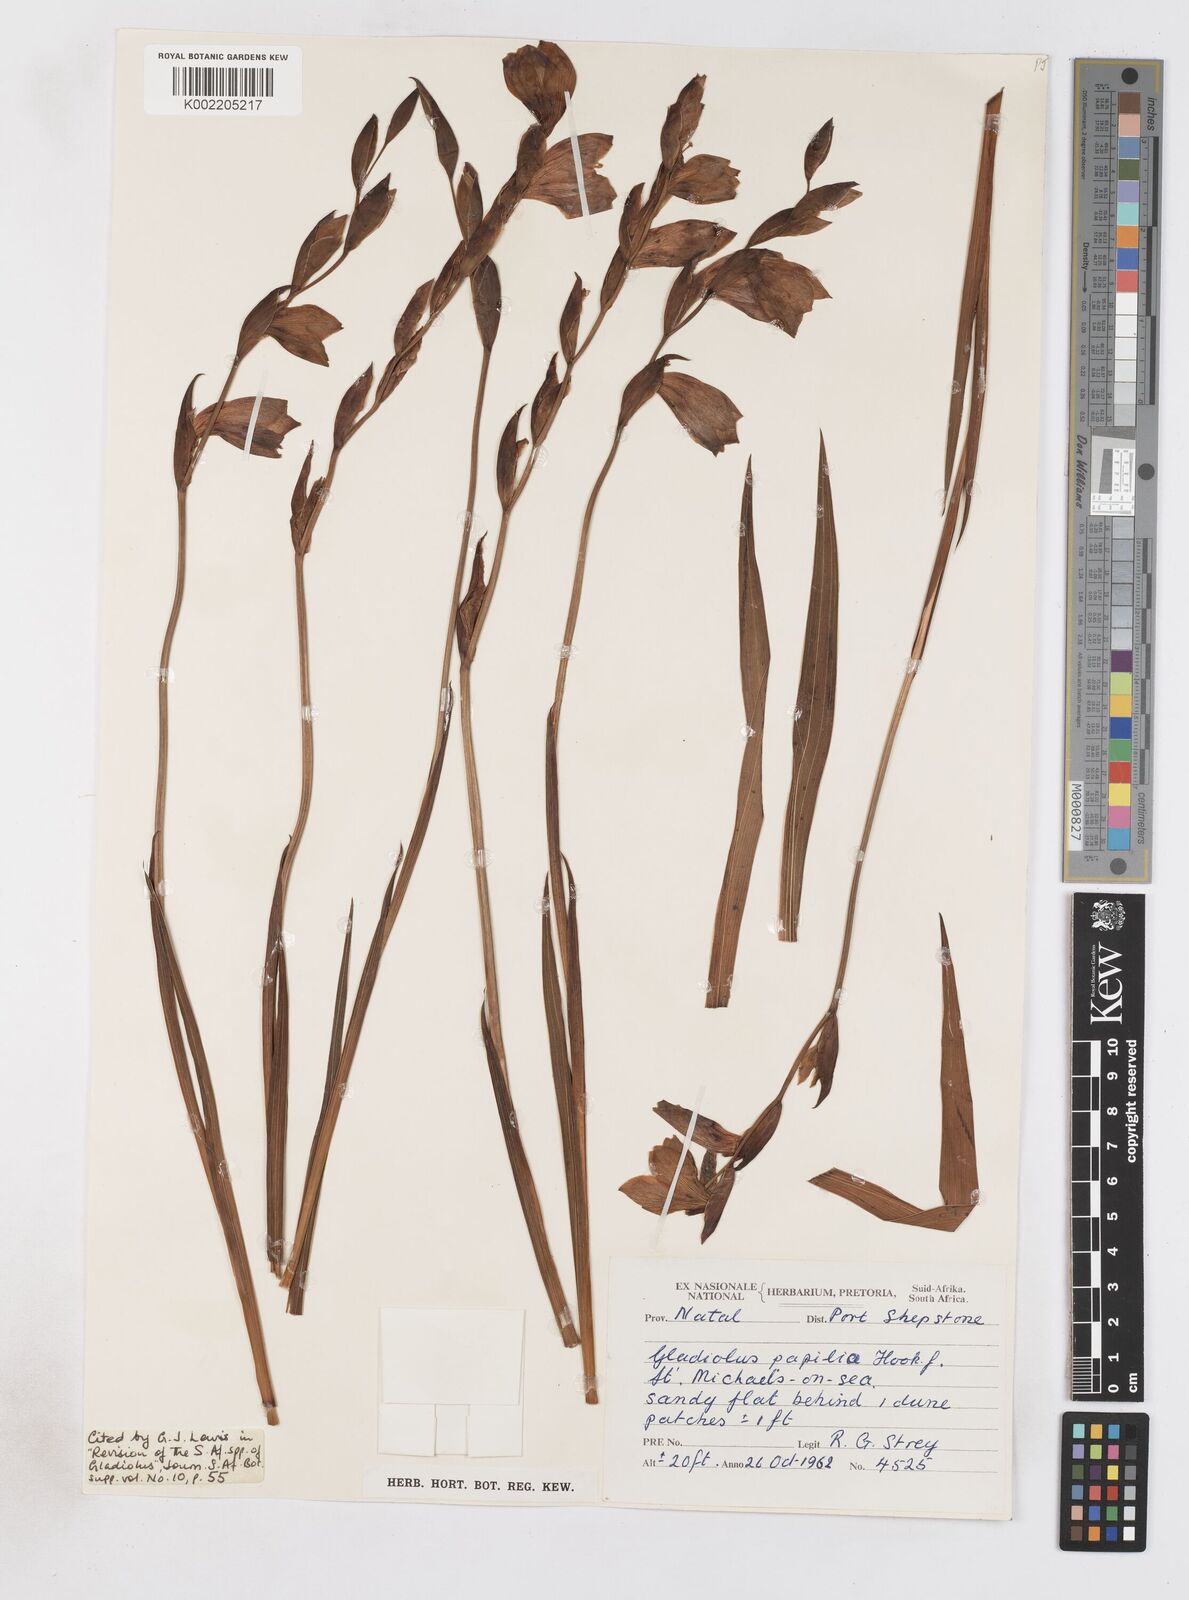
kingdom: Plantae
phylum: Tracheophyta
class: Liliopsida
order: Asparagales
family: Iridaceae
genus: Gladiolus
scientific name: Gladiolus papilio
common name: Goldblotch gladiolus
